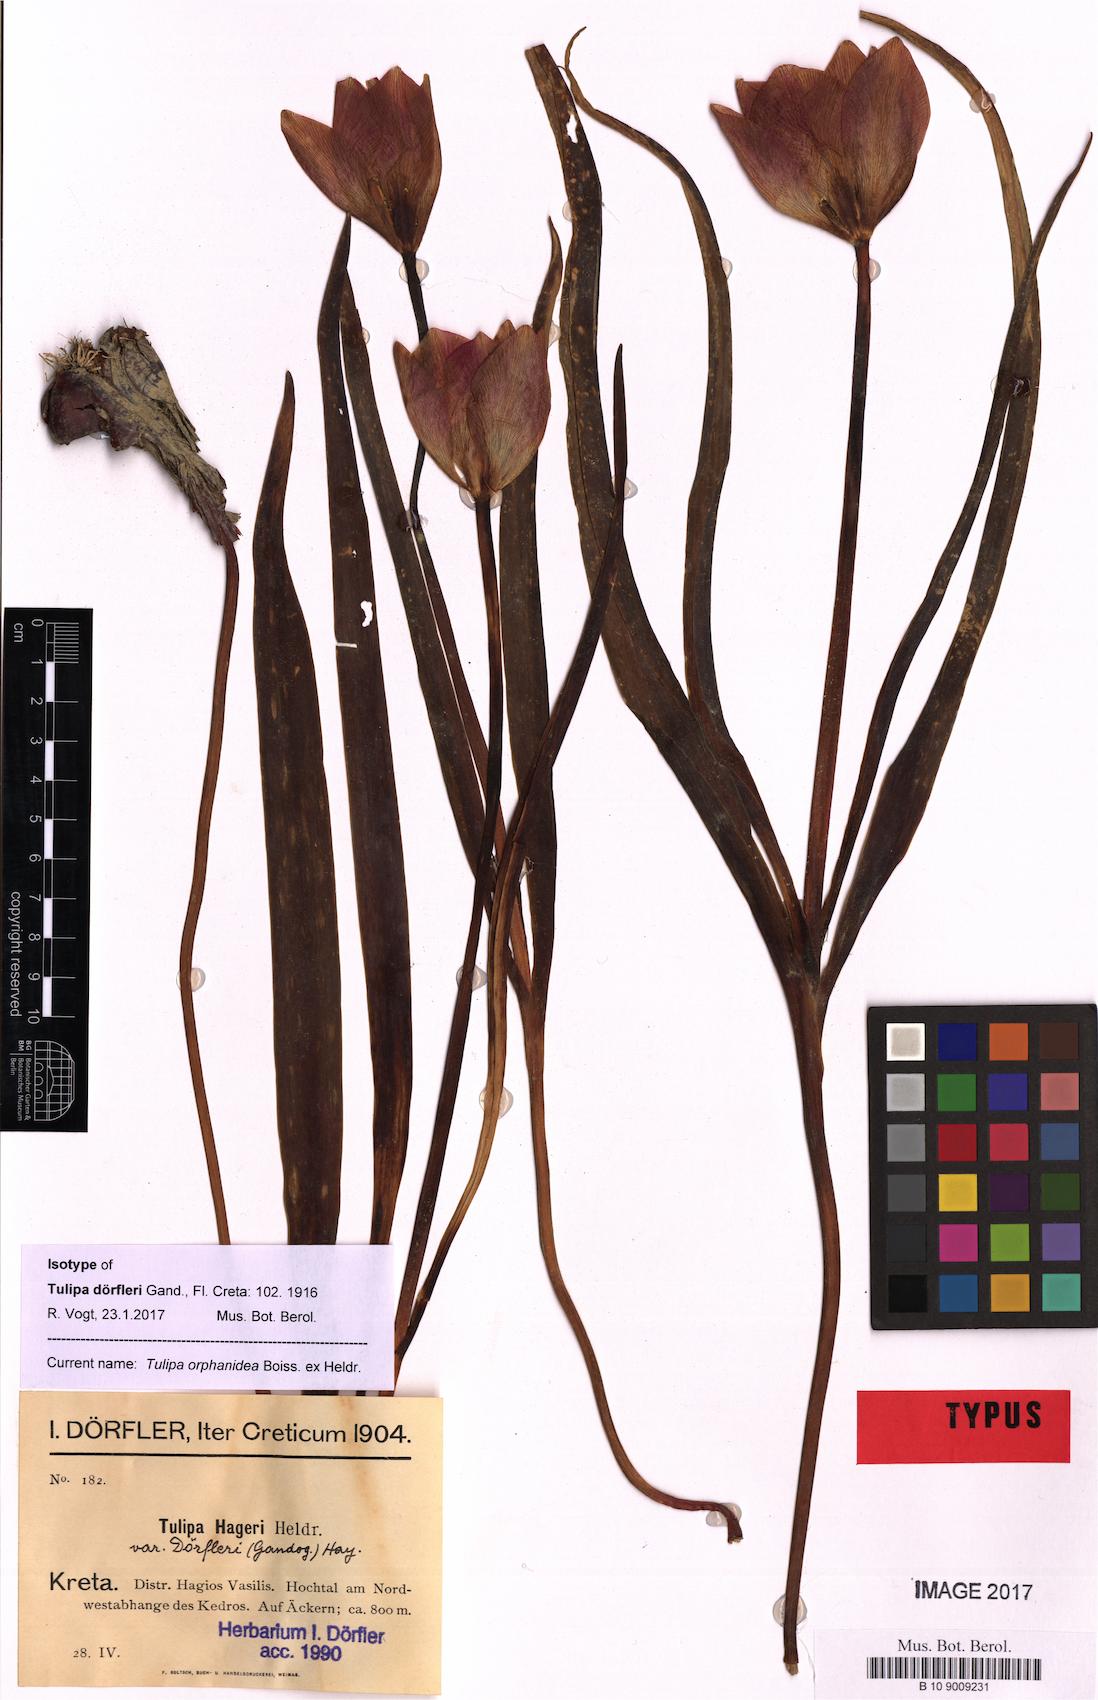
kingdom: Plantae
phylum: Tracheophyta
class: Liliopsida
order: Liliales
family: Liliaceae
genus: Tulipa
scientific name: Tulipa orphanidea
